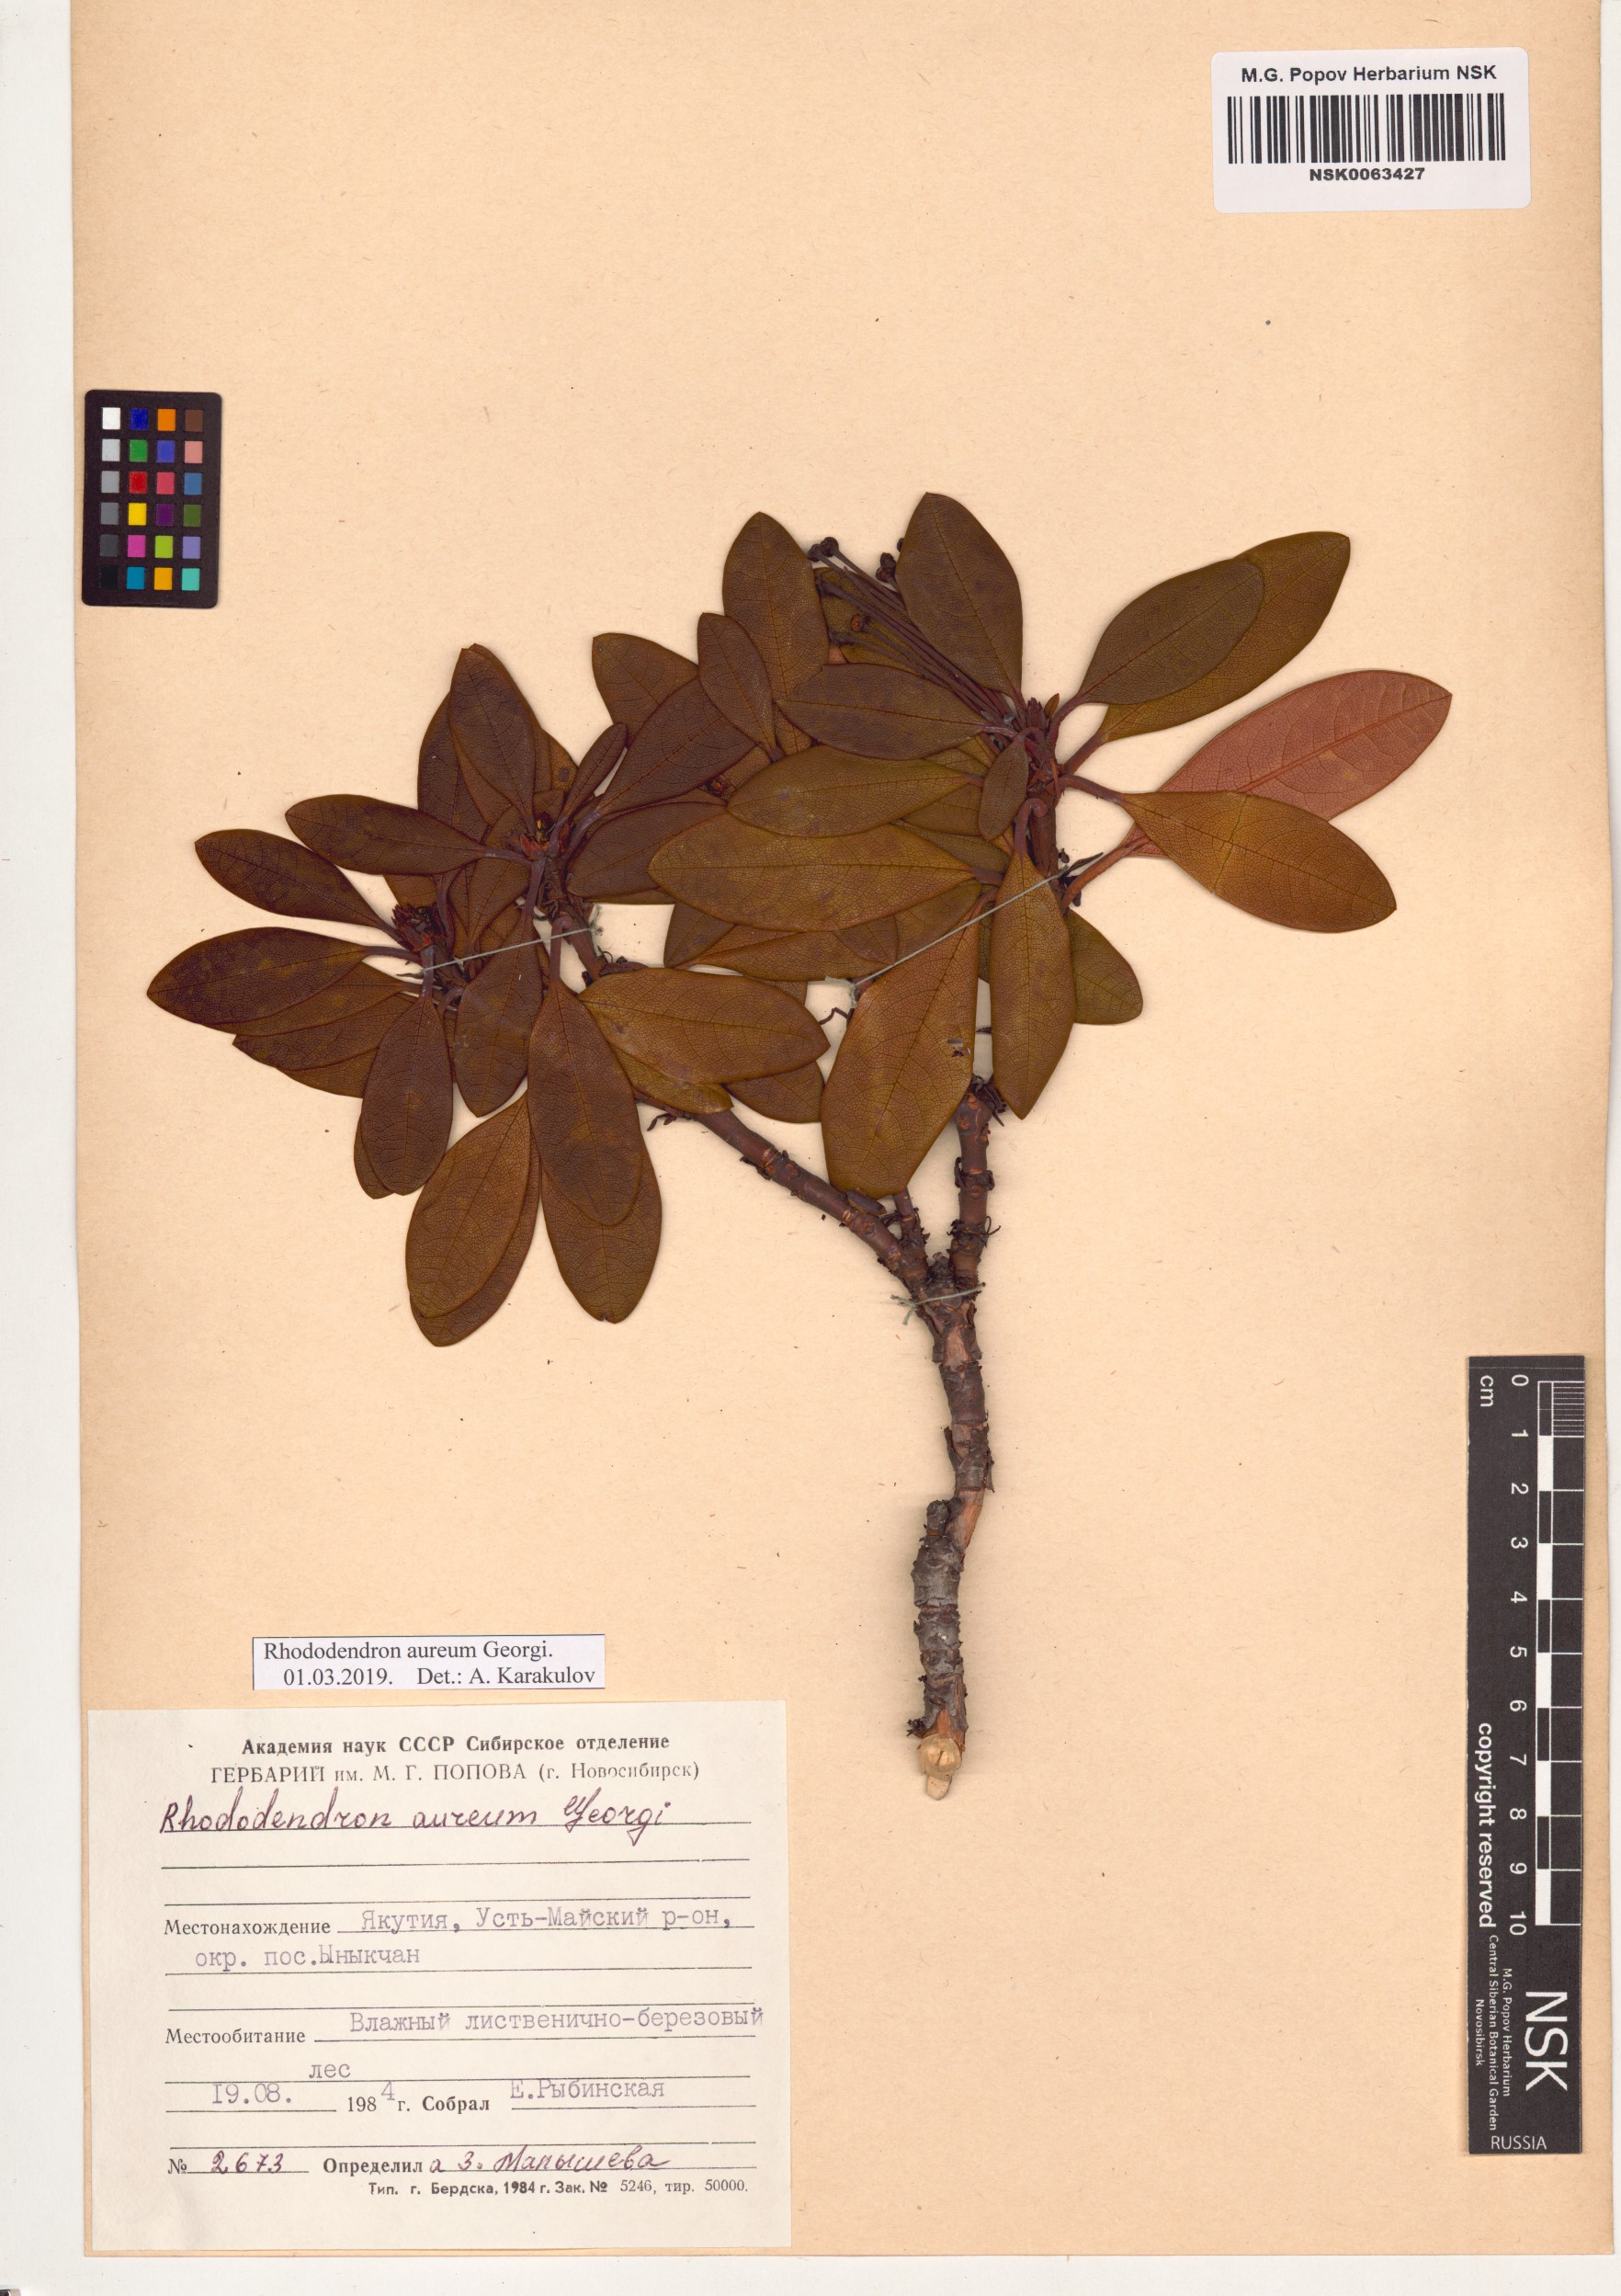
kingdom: Plantae
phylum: Tracheophyta
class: Magnoliopsida
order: Ericales
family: Ericaceae
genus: Rhododendron
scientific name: Rhododendron aureum
